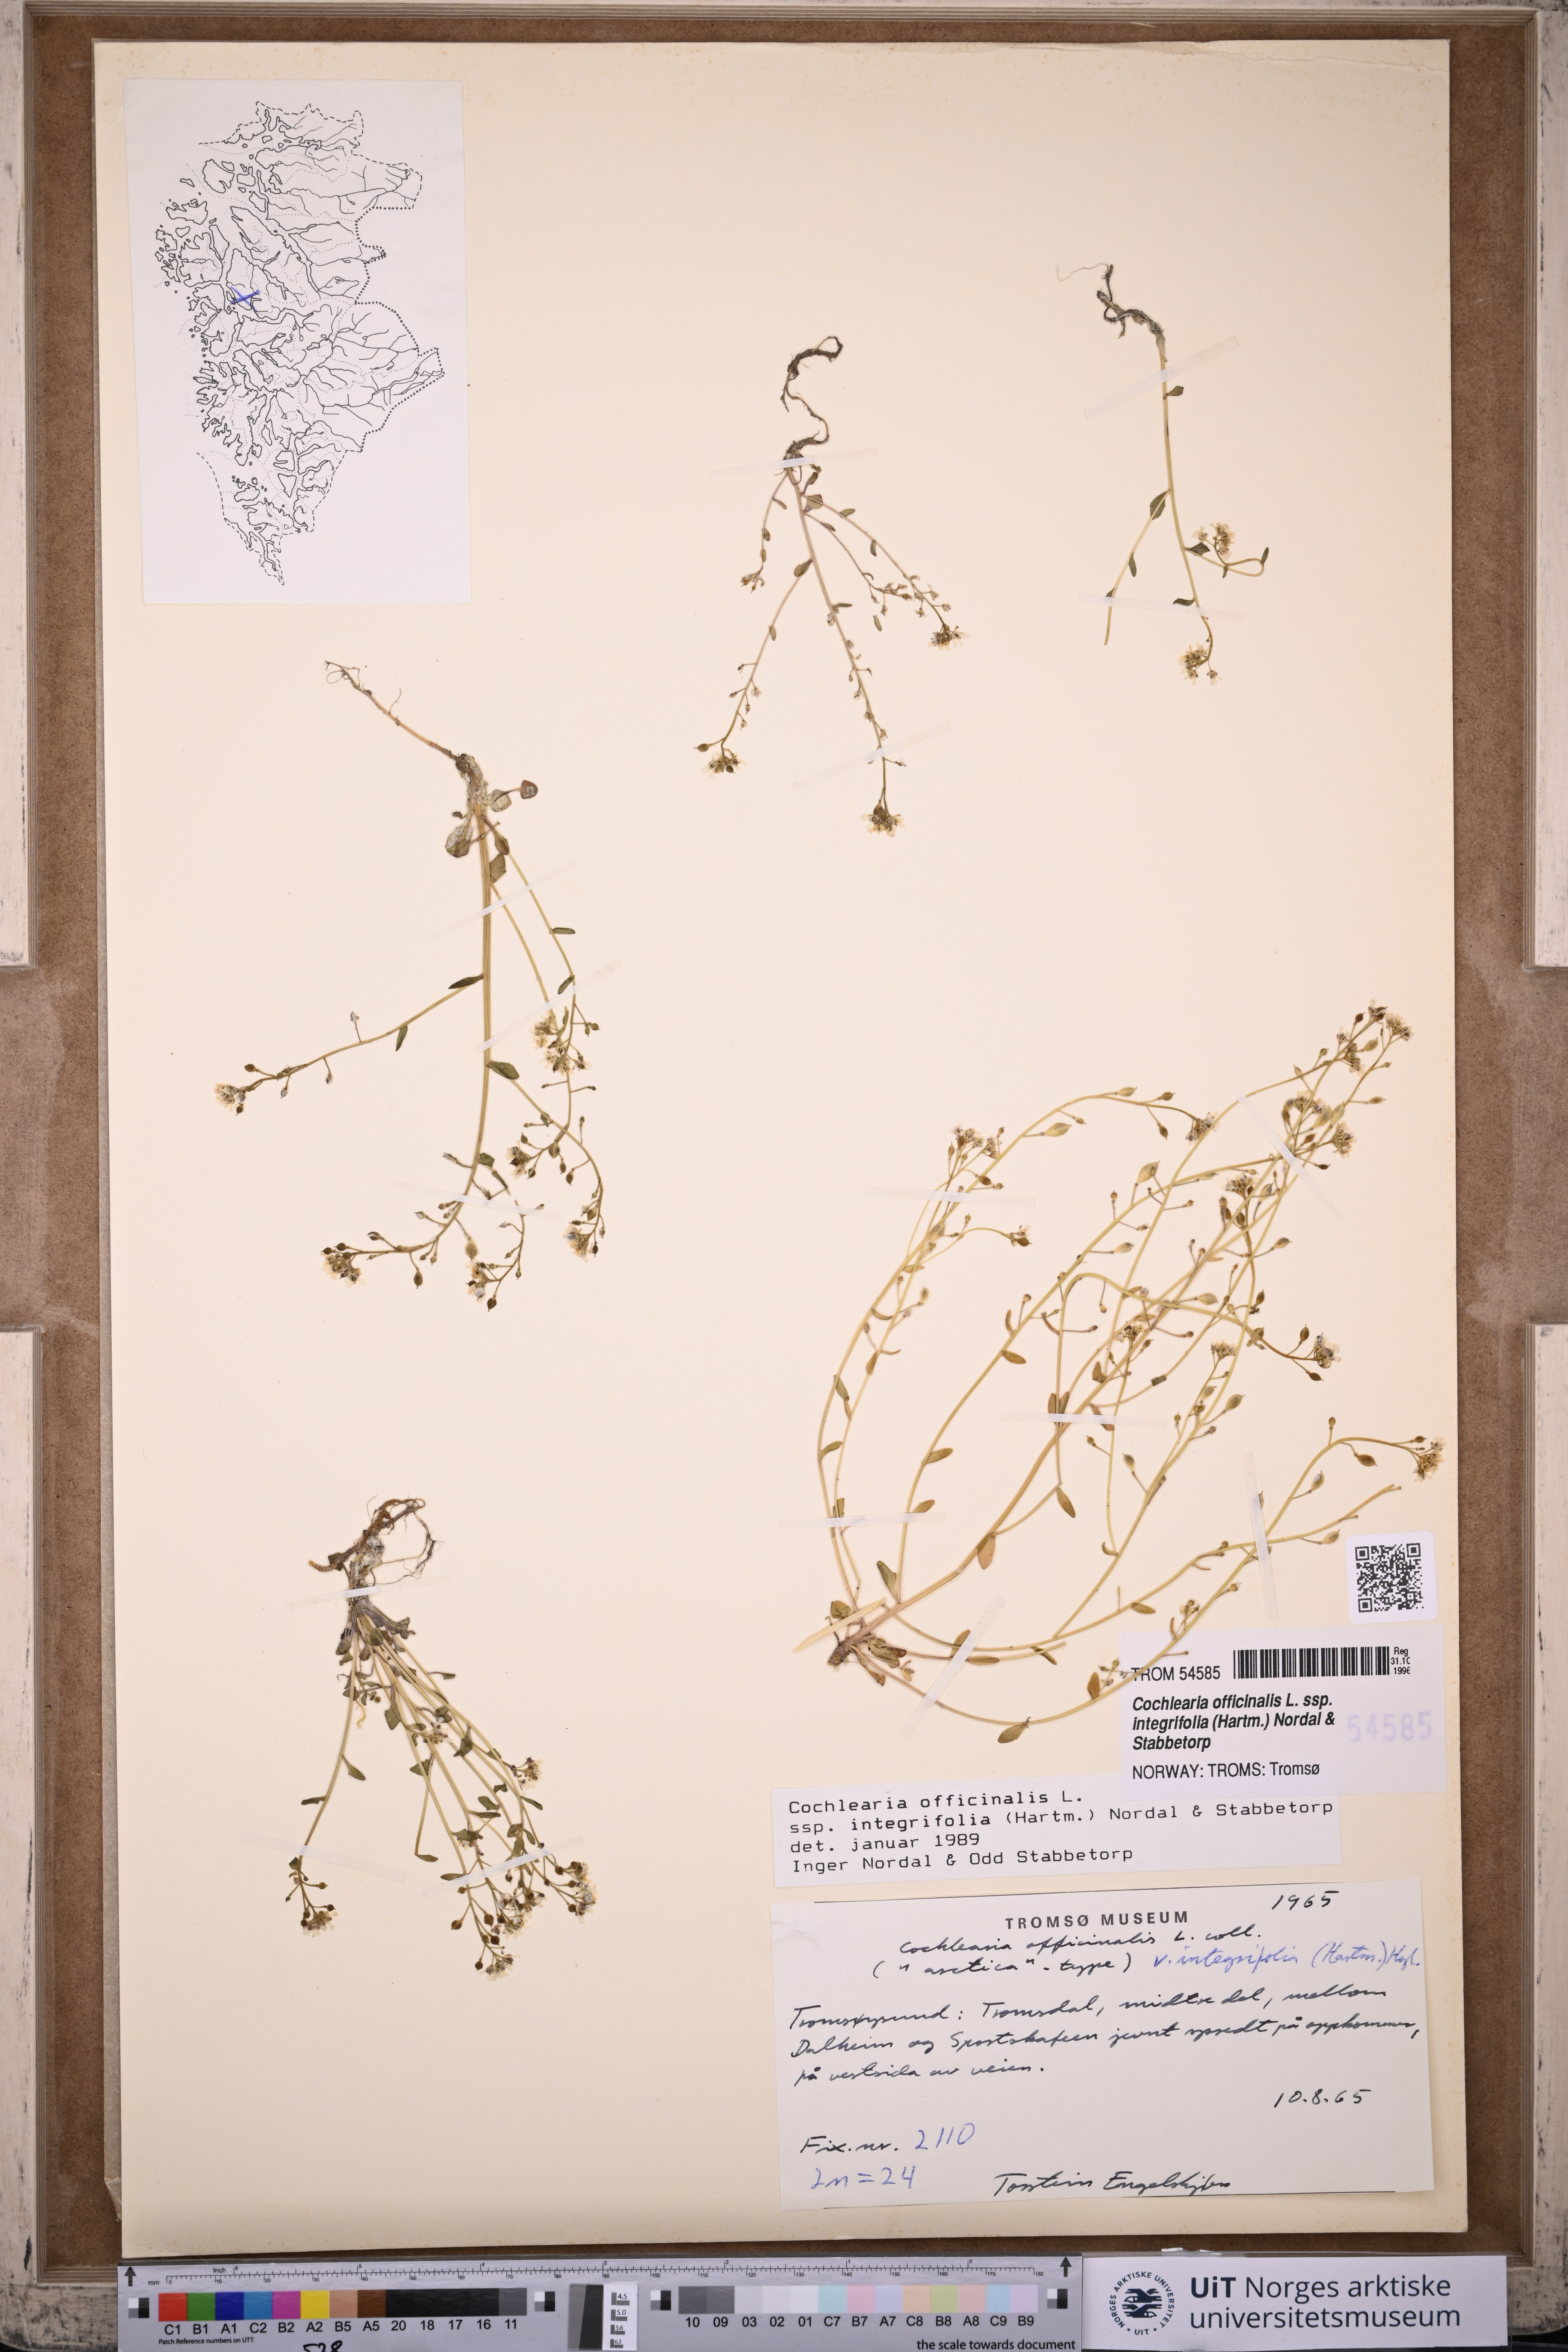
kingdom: Plantae
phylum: Tracheophyta
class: Magnoliopsida
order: Brassicales
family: Brassicaceae
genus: Cochlearia
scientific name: Cochlearia officinalis
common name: Scurvy-grass
